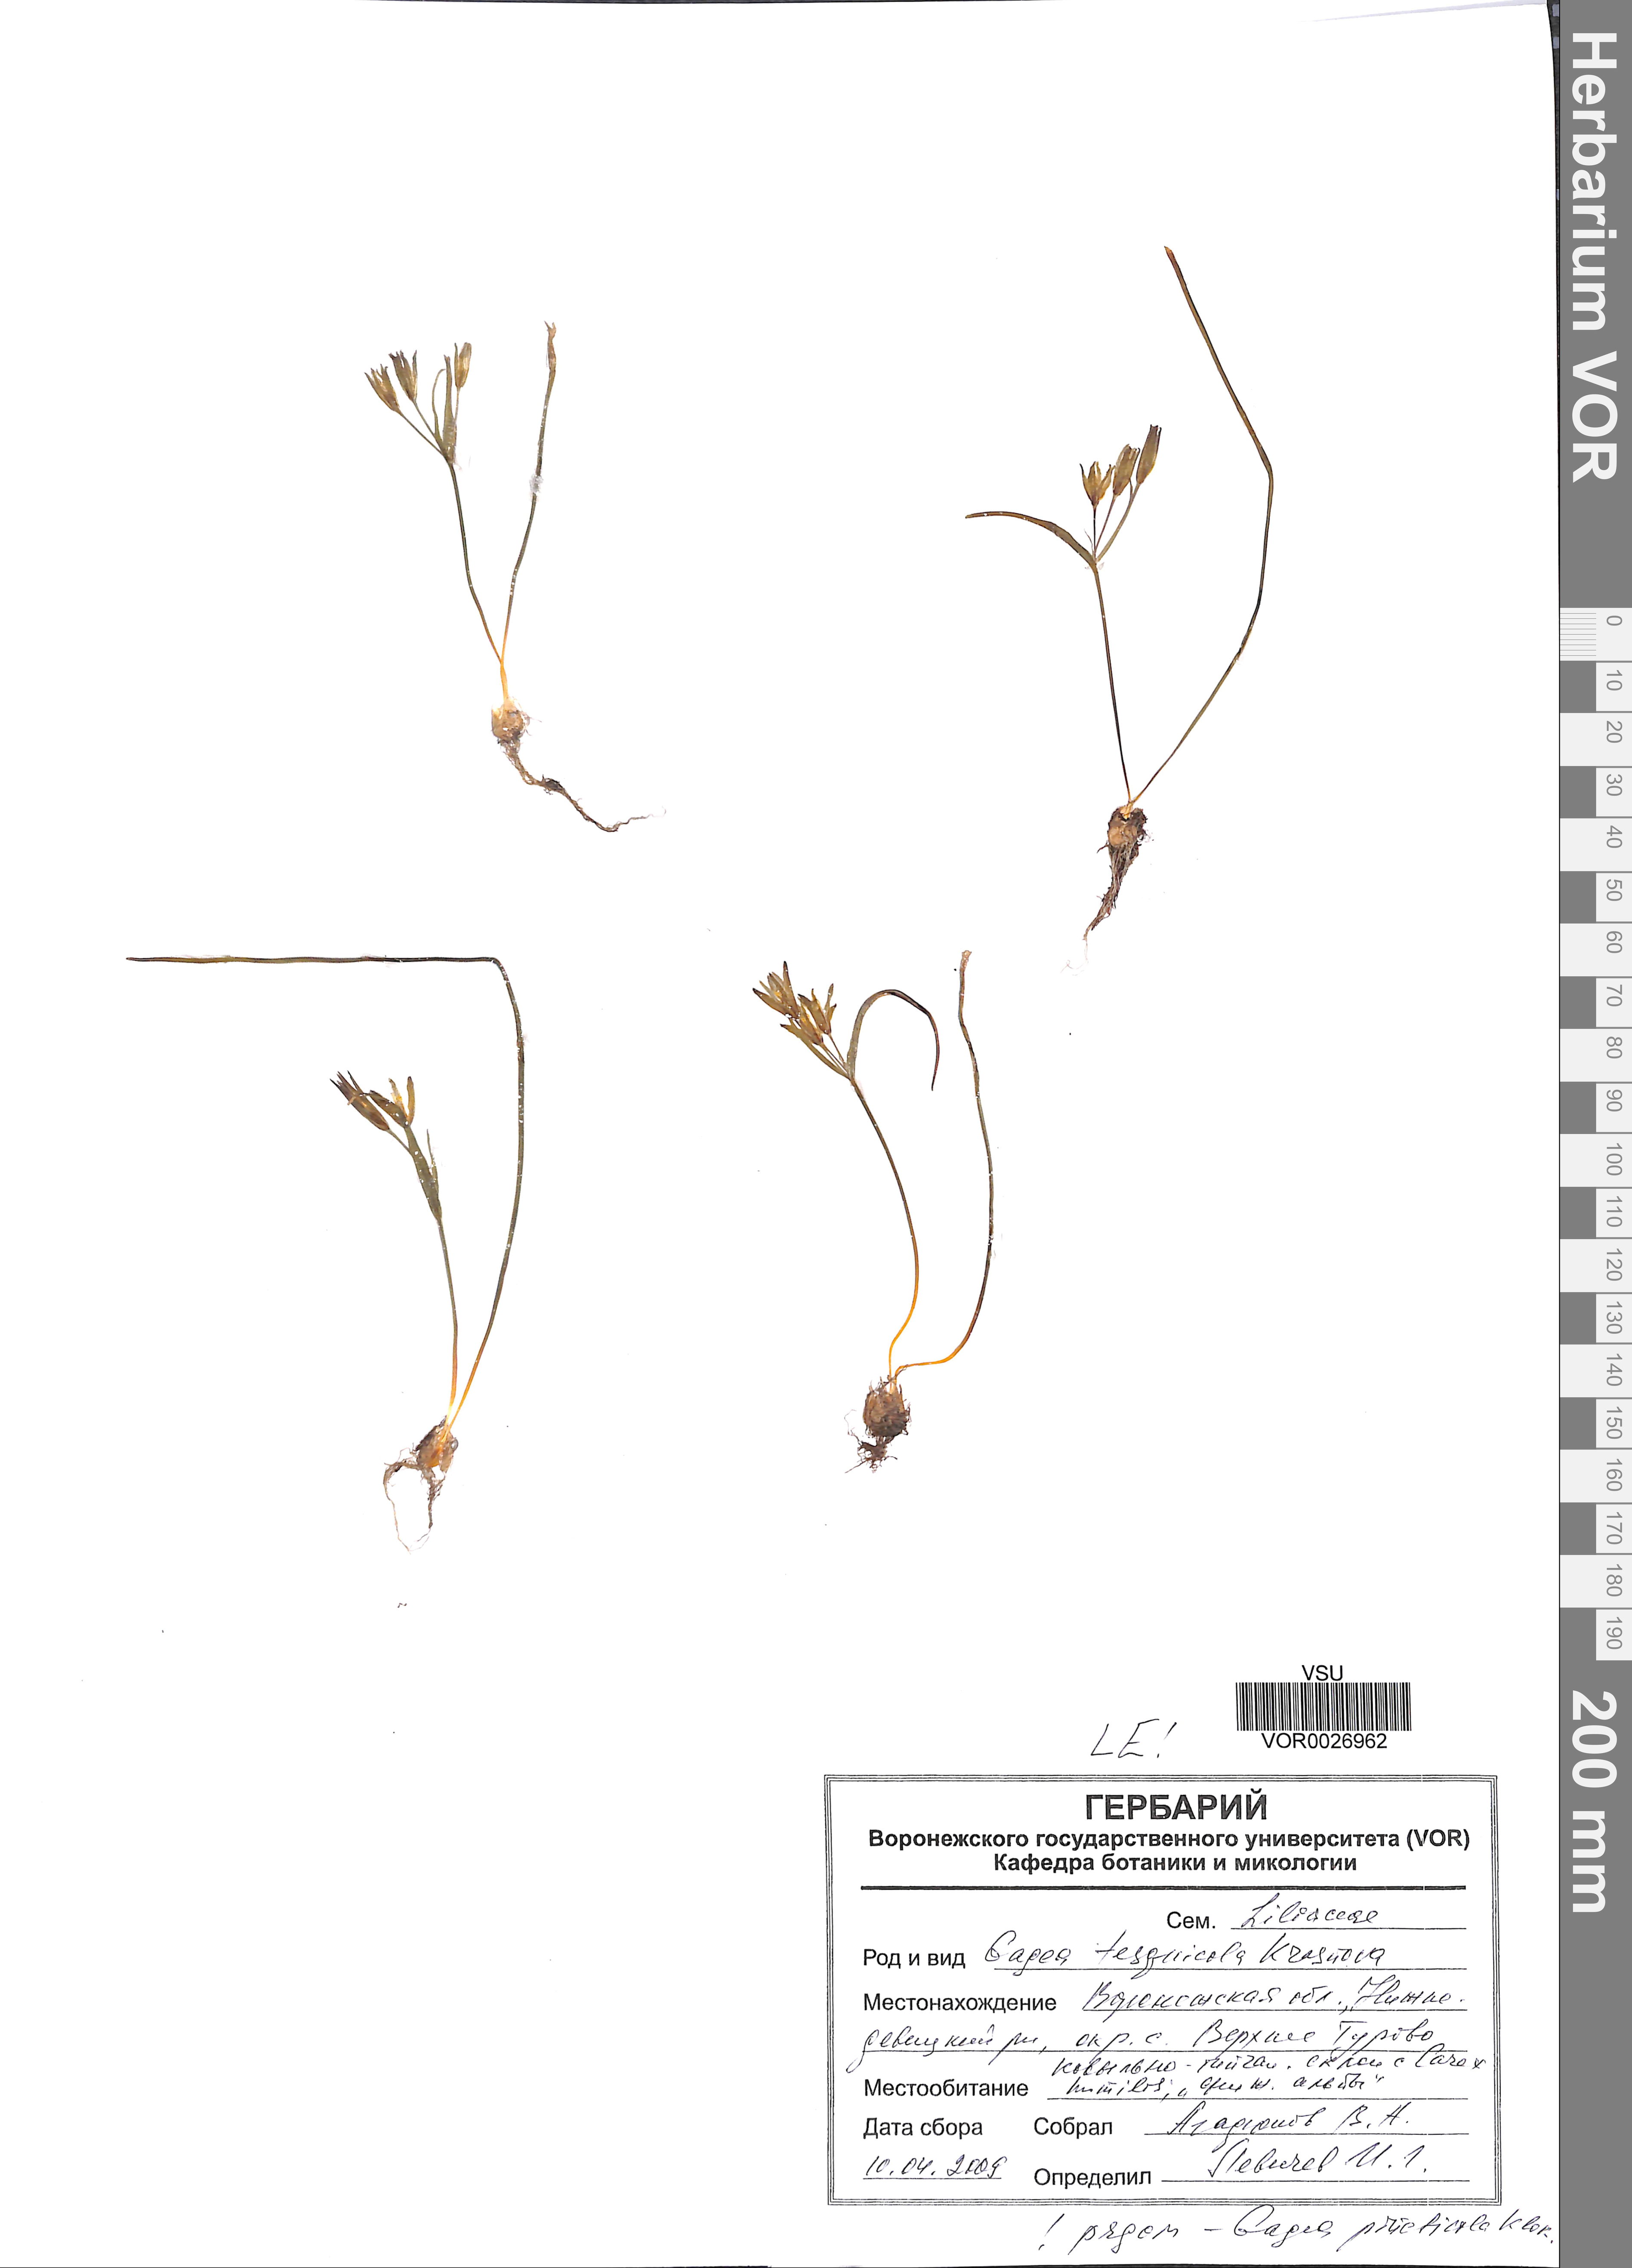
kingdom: Plantae
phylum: Tracheophyta
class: Liliopsida
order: Liliales
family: Liliaceae
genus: Gagea
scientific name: Gagea tesquicola
